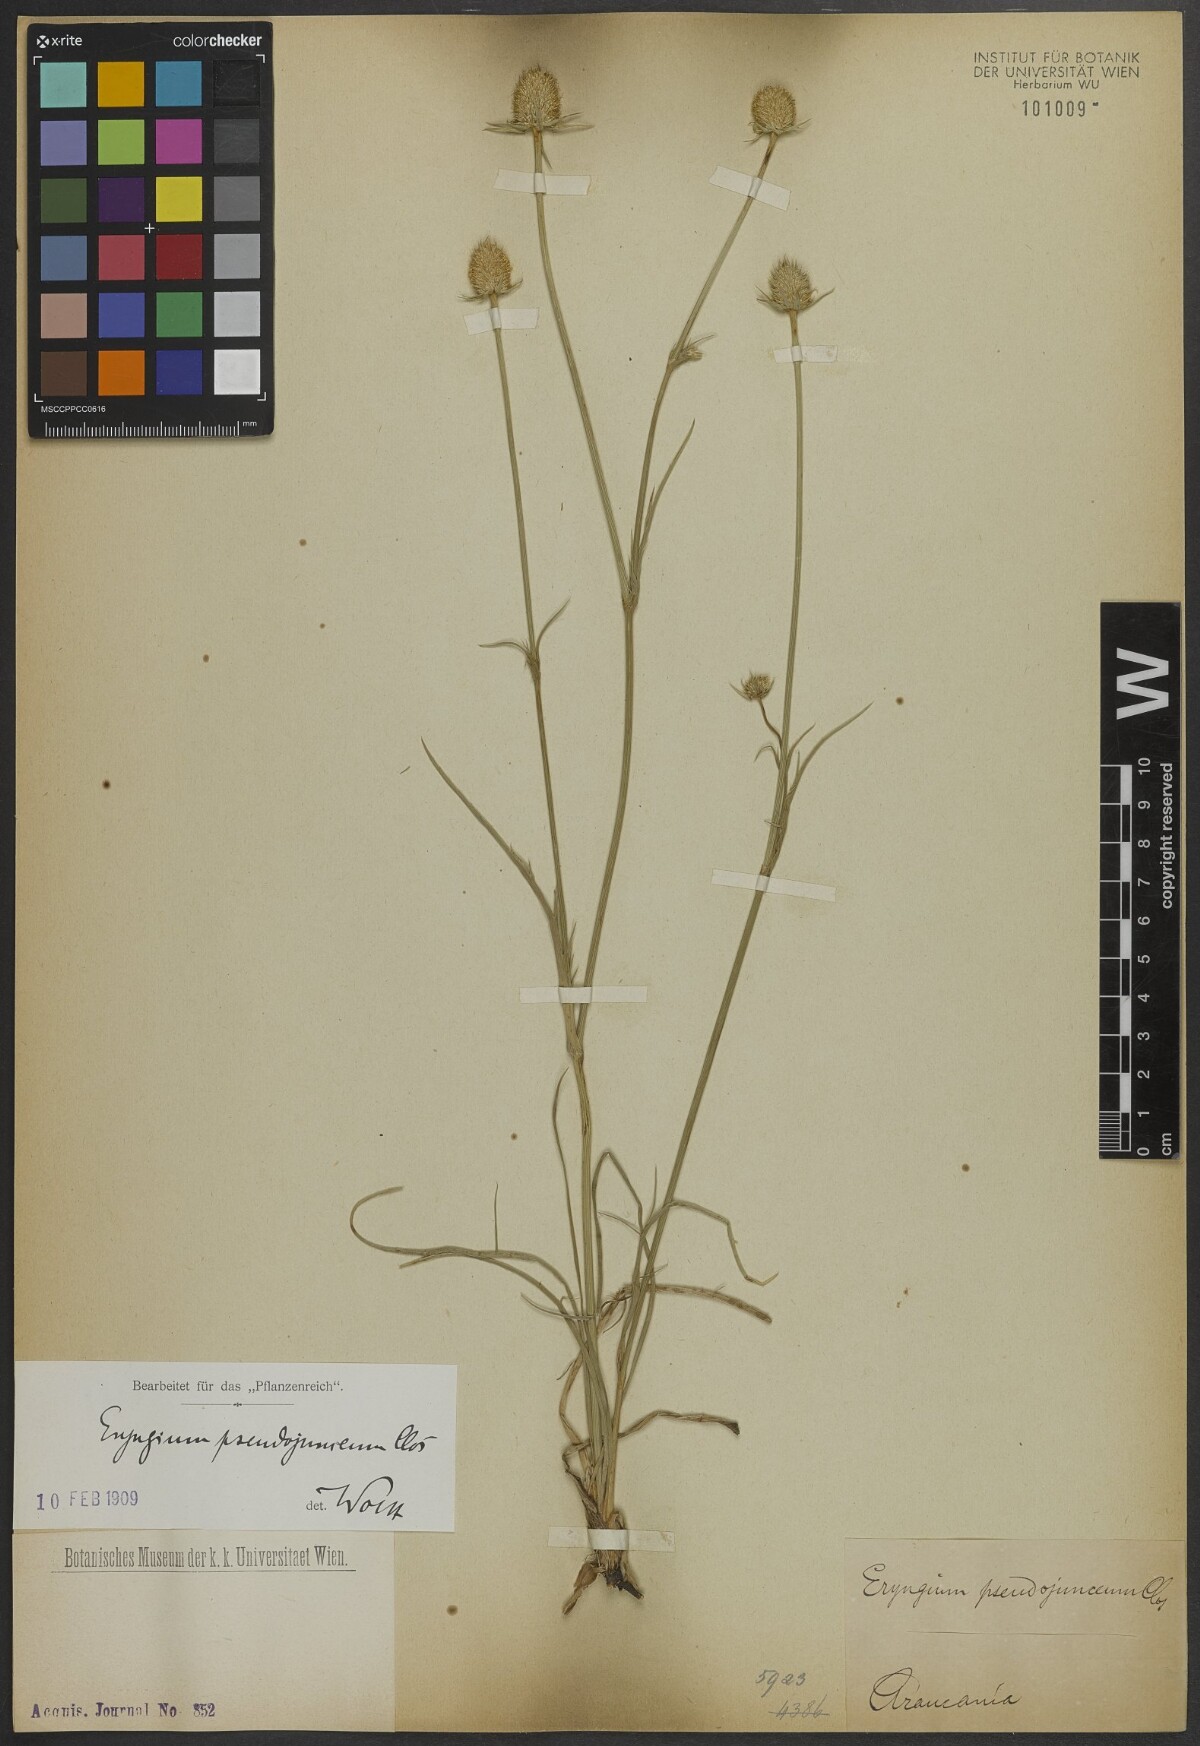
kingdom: Plantae
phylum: Tracheophyta
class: Magnoliopsida
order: Apiales
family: Apiaceae
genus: Eryngium
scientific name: Eryngium pseudojunceum
